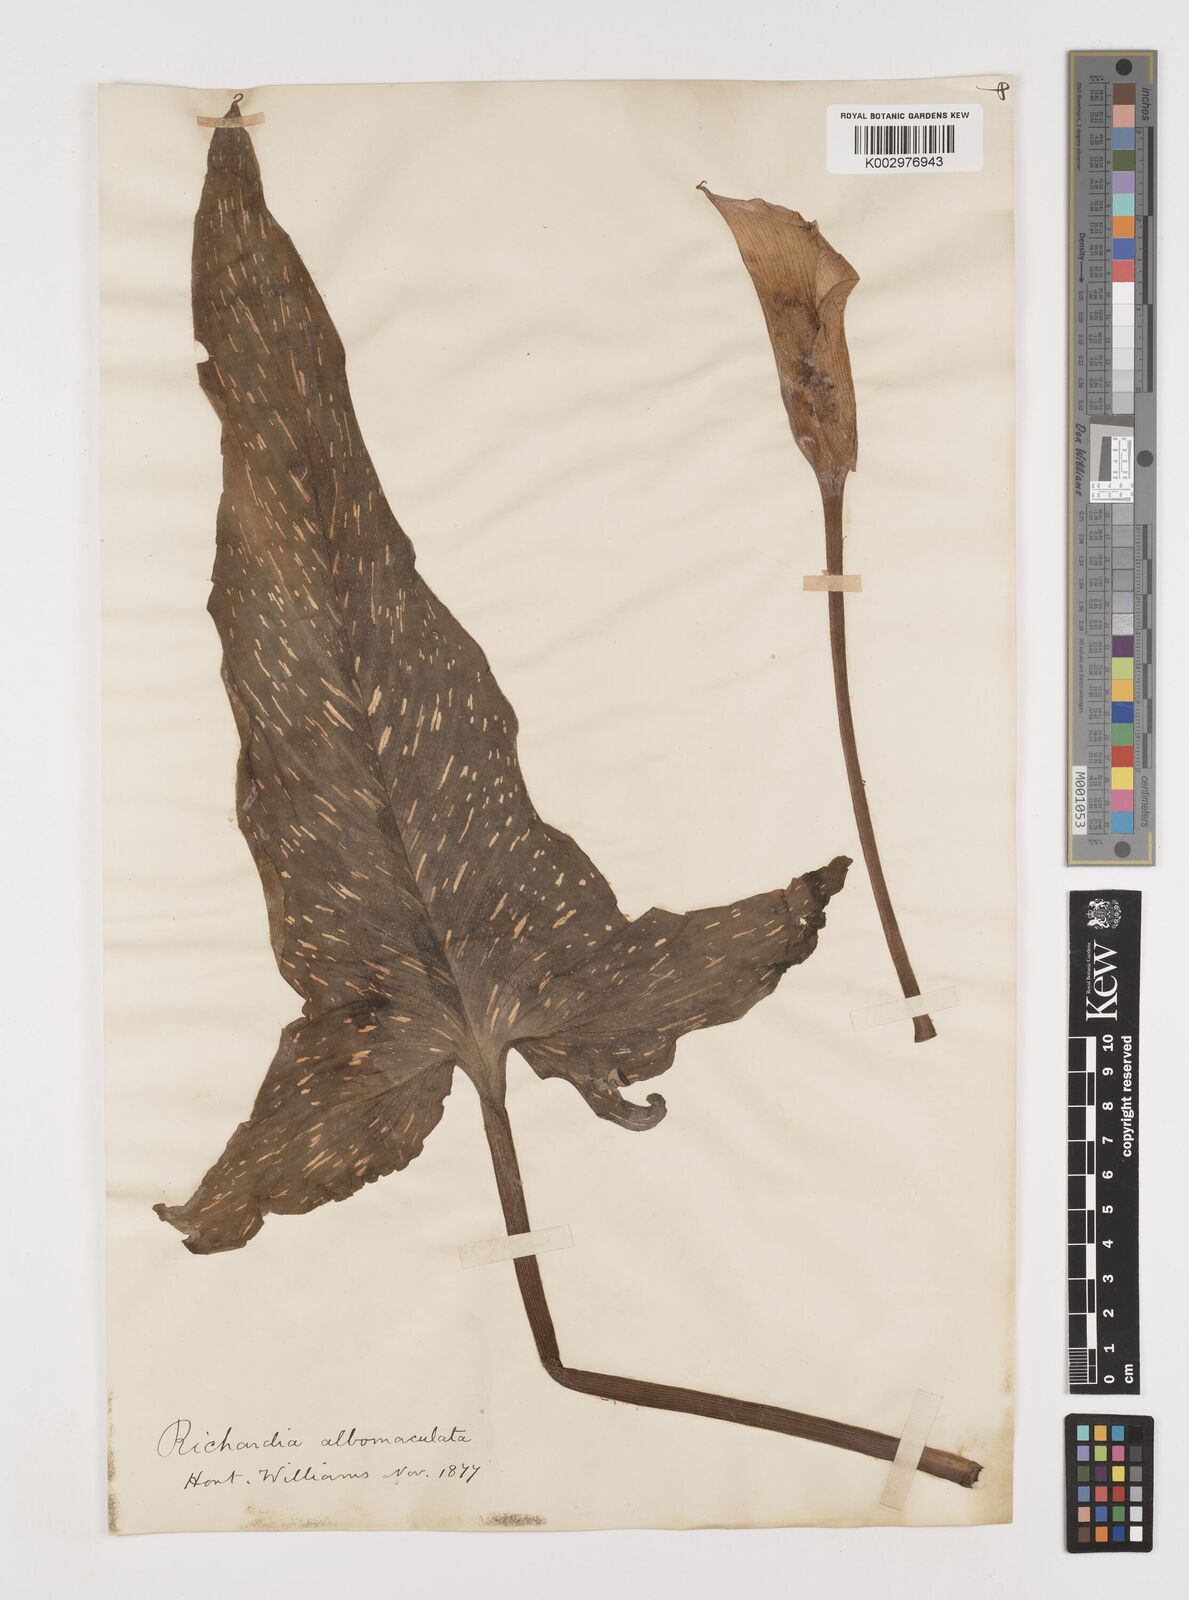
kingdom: Plantae
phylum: Tracheophyta
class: Liliopsida
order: Alismatales
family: Araceae
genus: Zantedeschia
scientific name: Zantedeschia albomaculata
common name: Spotted calla lily
